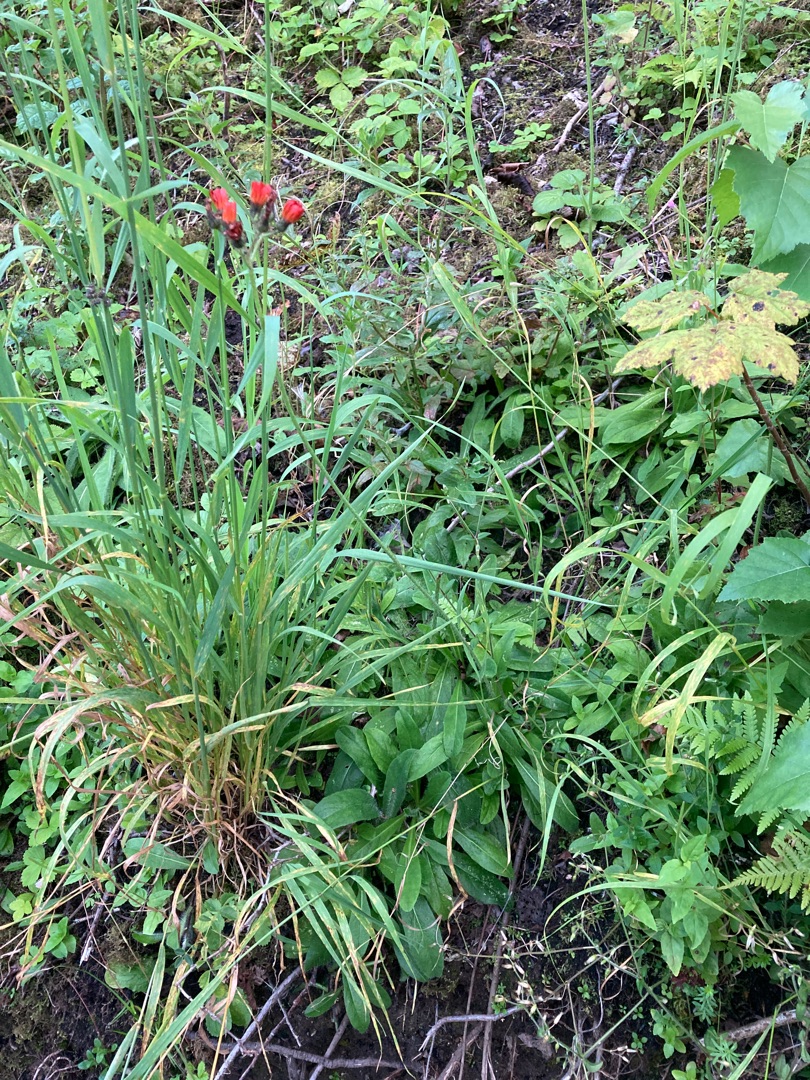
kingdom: Plantae
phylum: Tracheophyta
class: Magnoliopsida
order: Asterales
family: Asteraceae
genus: Pilosella
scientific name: Pilosella aurantiaca
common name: Pomerans-høgeurt
